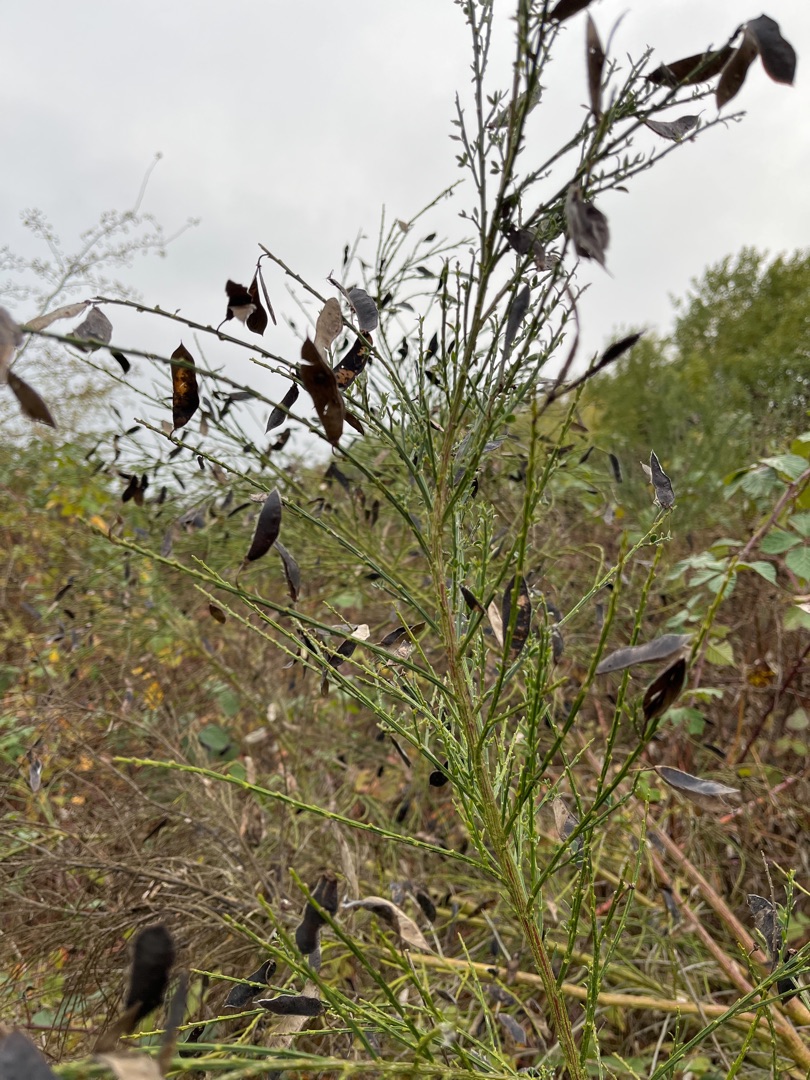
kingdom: Plantae
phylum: Tracheophyta
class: Magnoliopsida
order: Fabales
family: Fabaceae
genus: Cytisus
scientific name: Cytisus scoparius
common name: Almindelig gyvel
